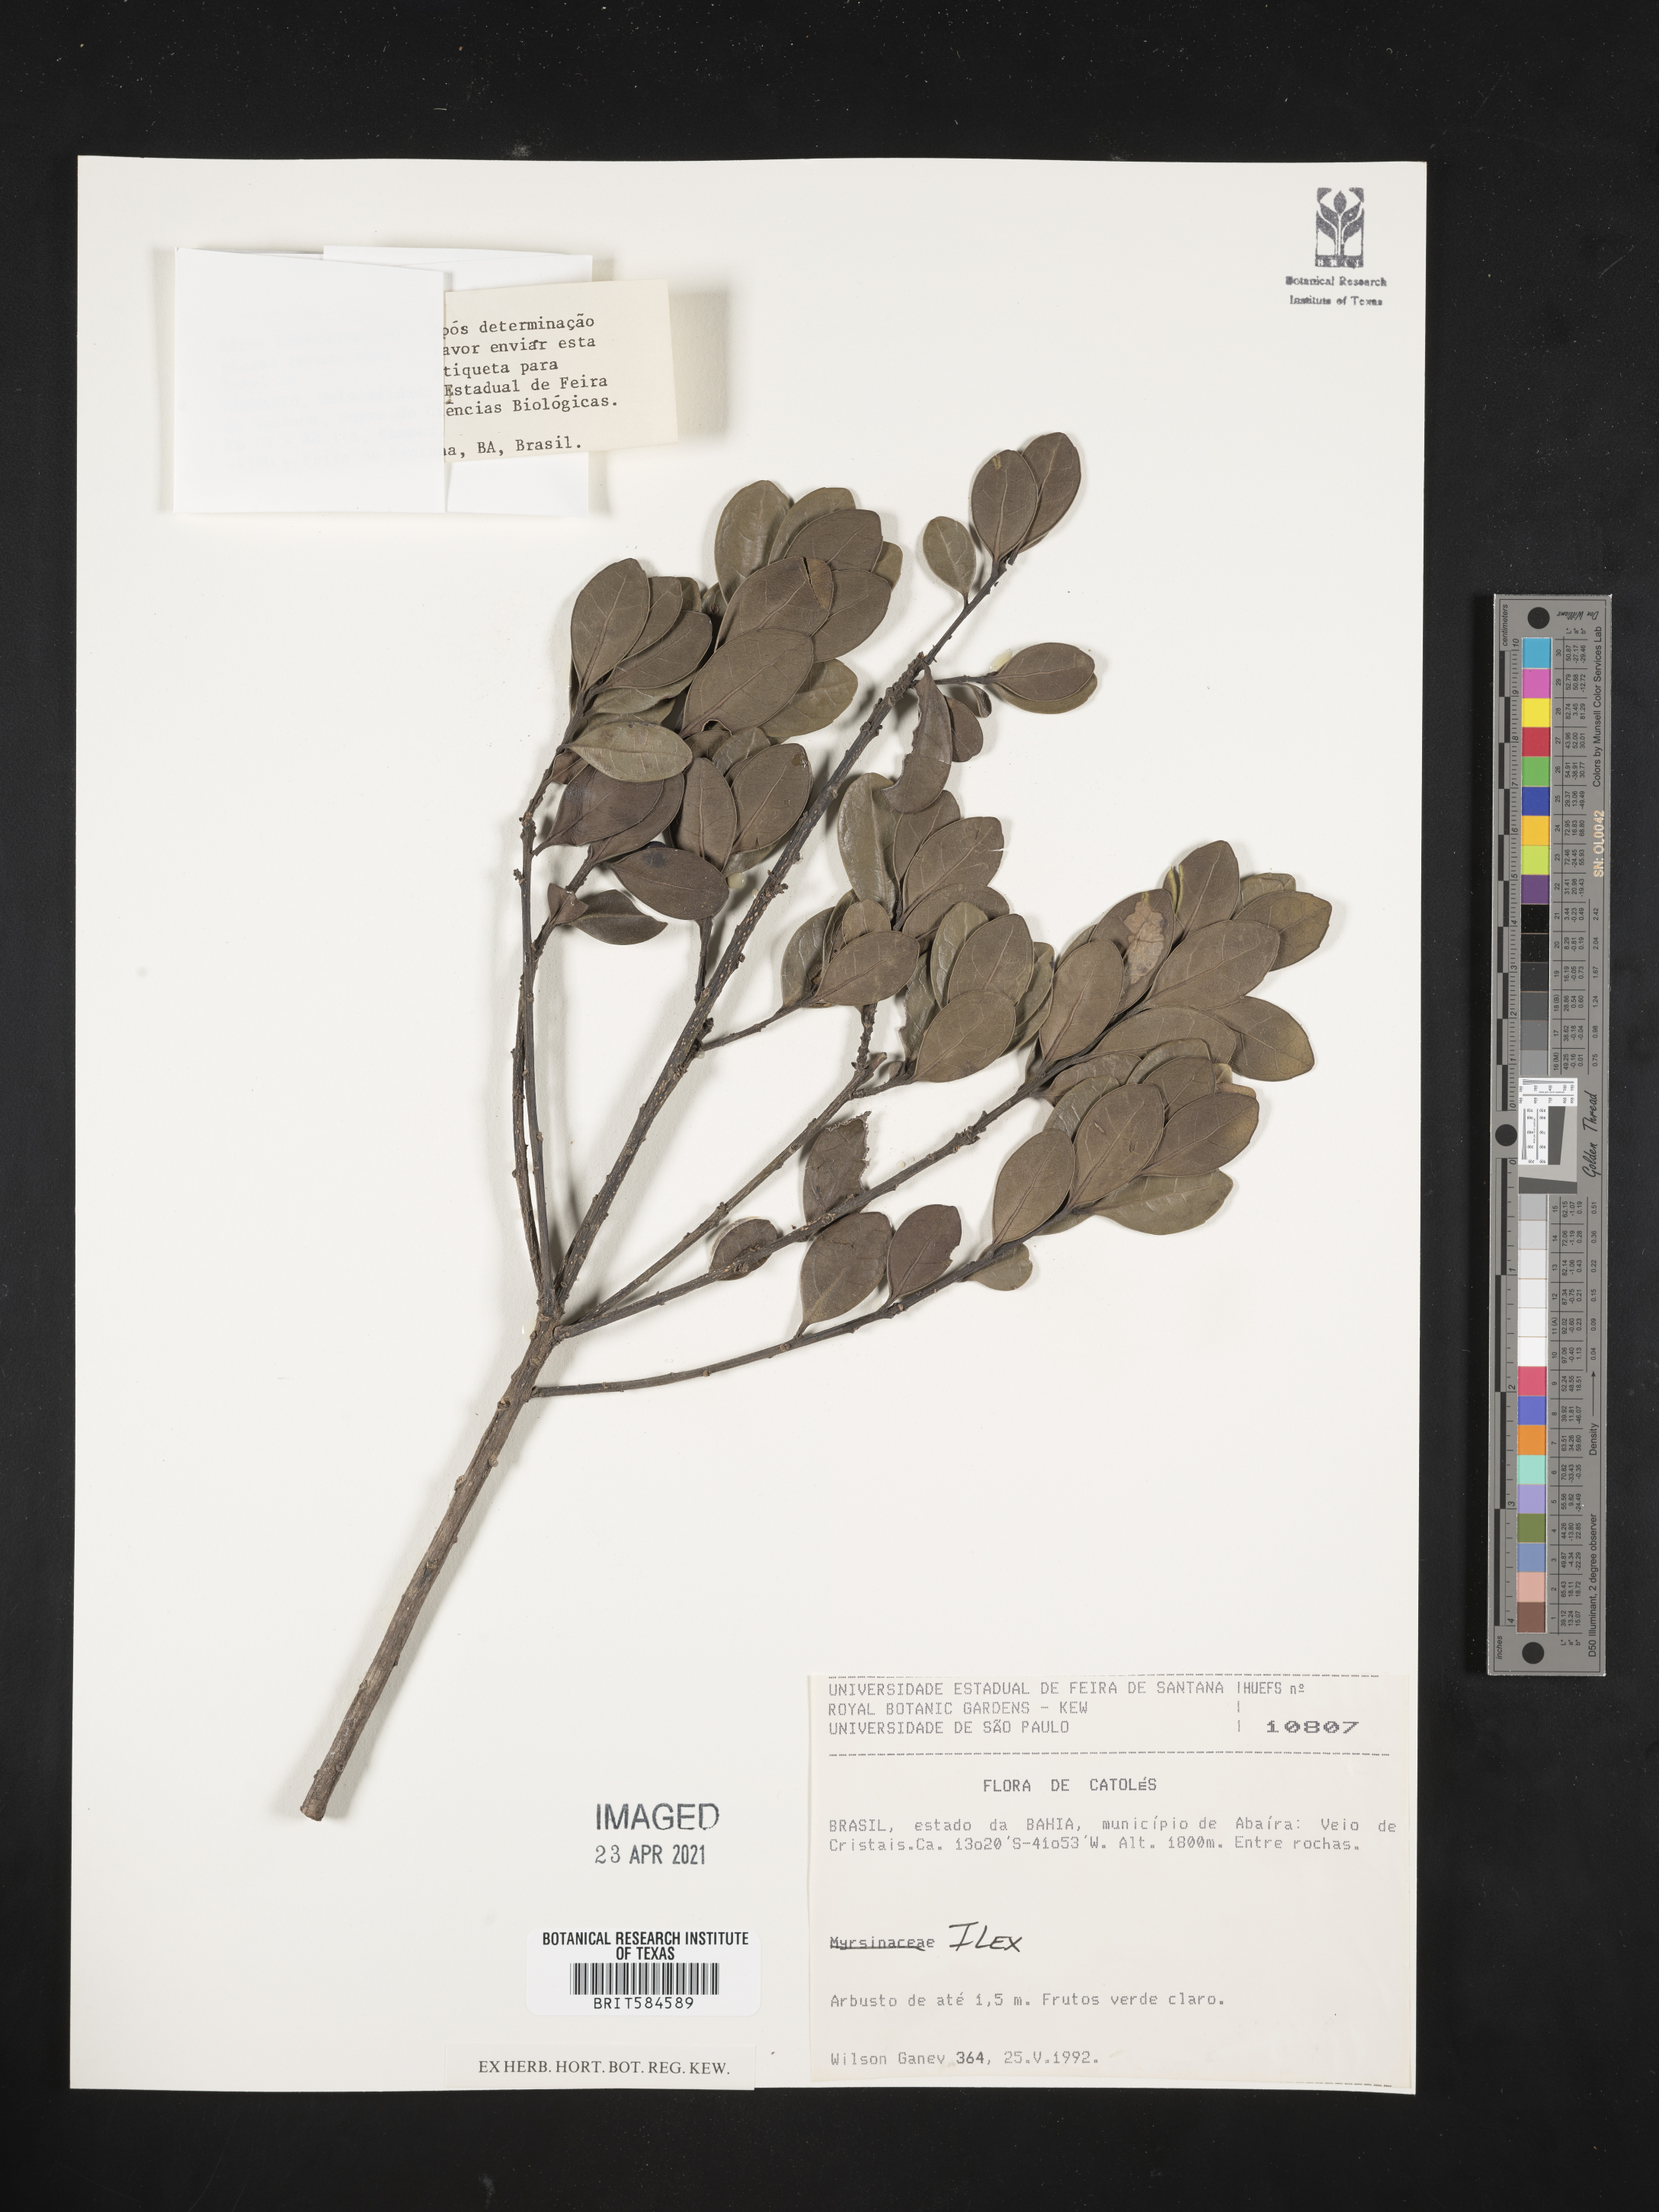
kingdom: Plantae
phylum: Tracheophyta
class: Magnoliopsida
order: Aquifoliales
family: Aquifoliaceae
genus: Ilex
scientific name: Ilex
